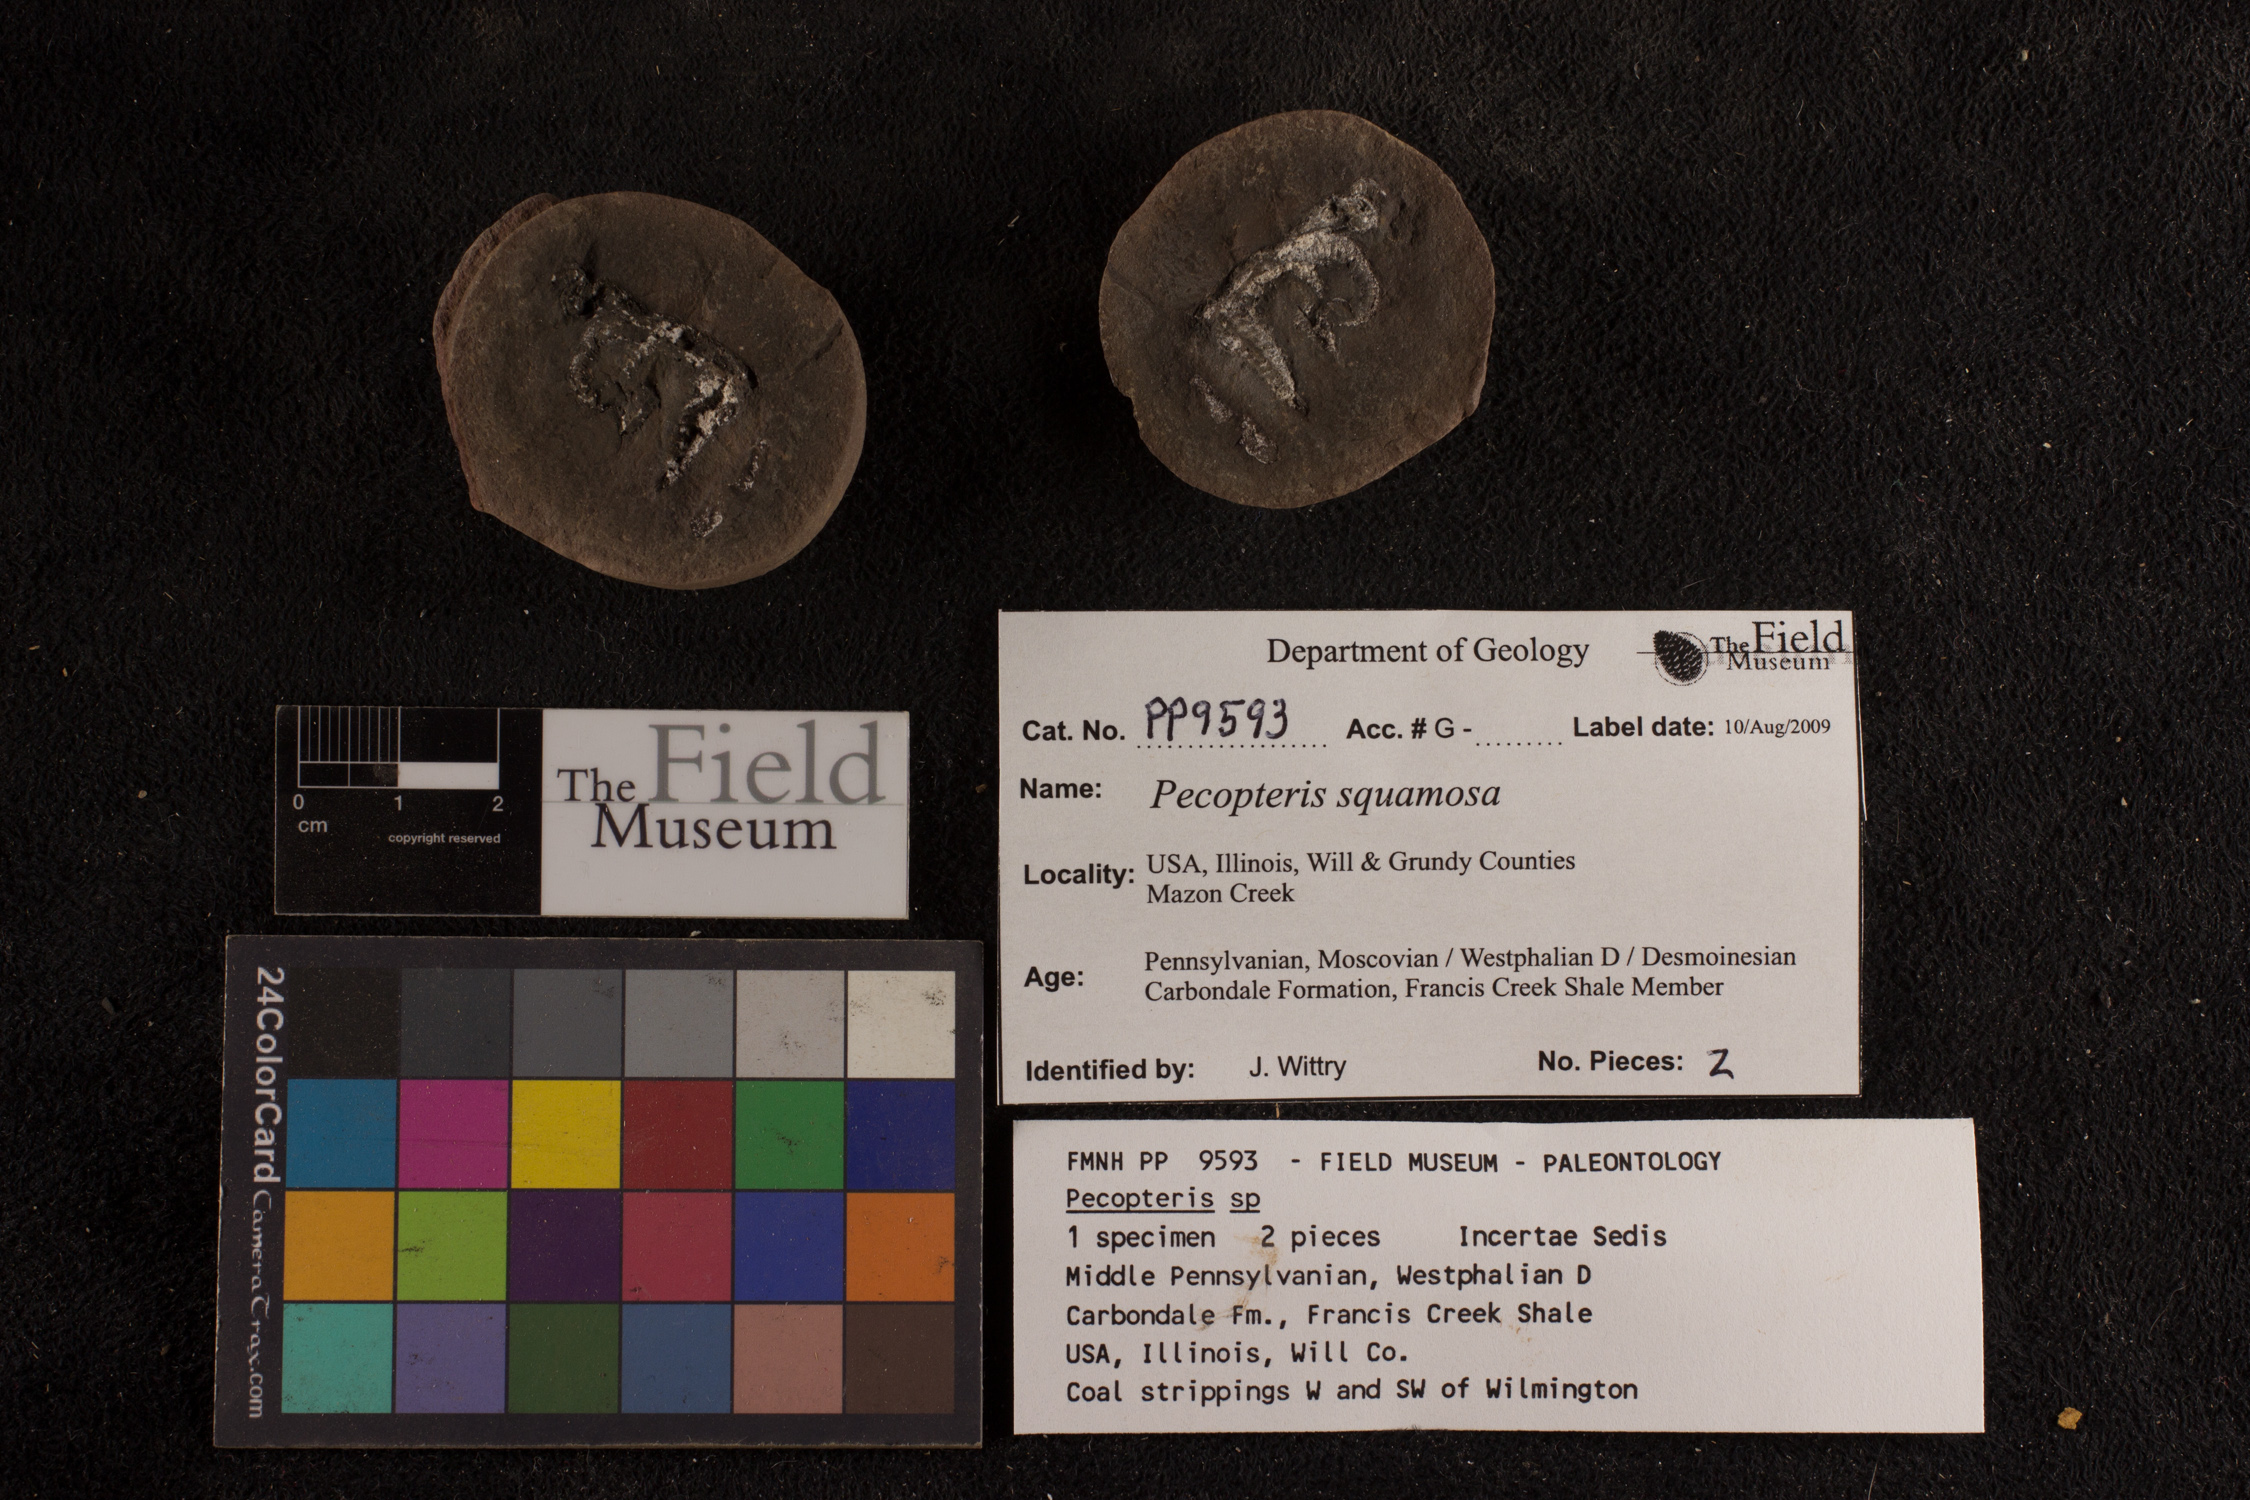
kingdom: Plantae
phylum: Tracheophyta
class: Polypodiopsida
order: Marattiales
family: Asterothecaceae
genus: Pecopteris
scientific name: Pecopteris
